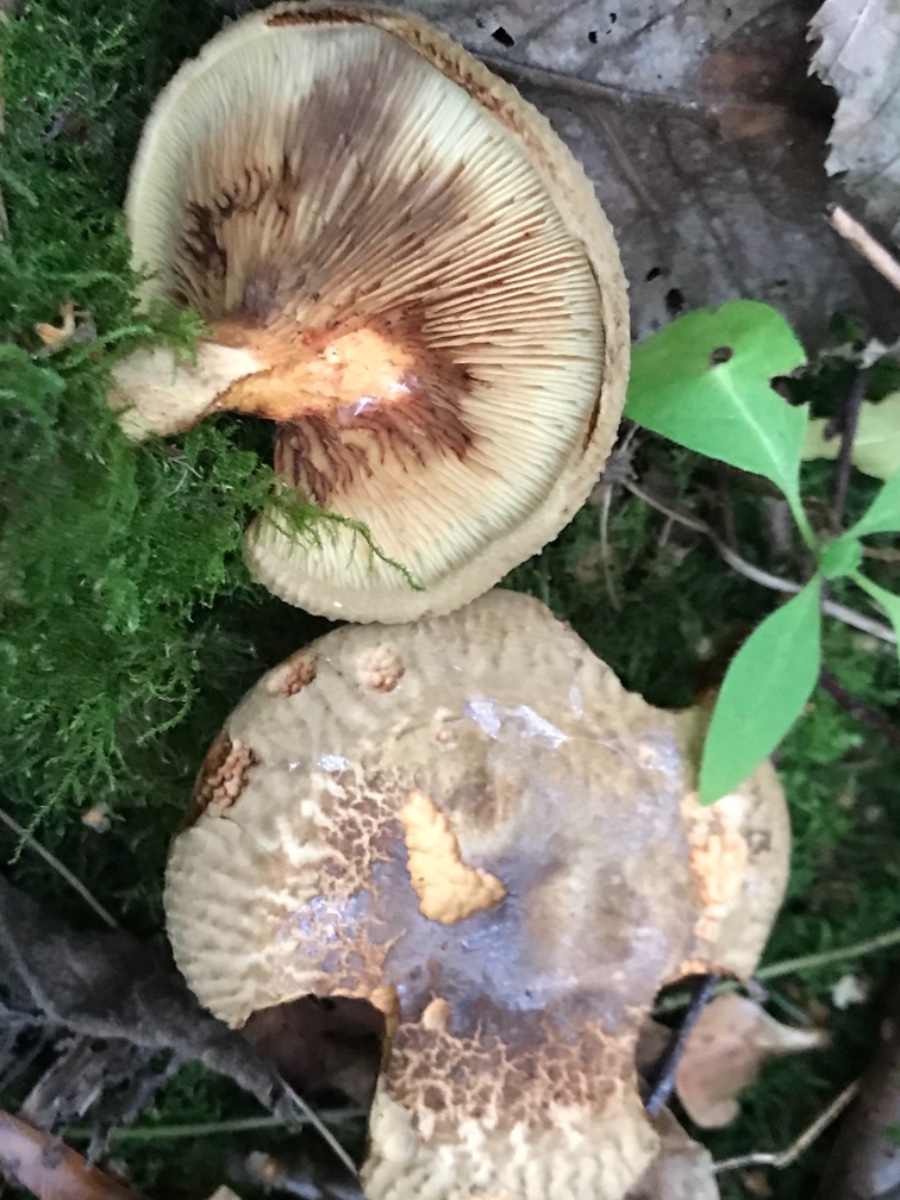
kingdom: Fungi
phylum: Basidiomycota
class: Agaricomycetes
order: Boletales
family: Paxillaceae
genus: Paxillus
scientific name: Paxillus
